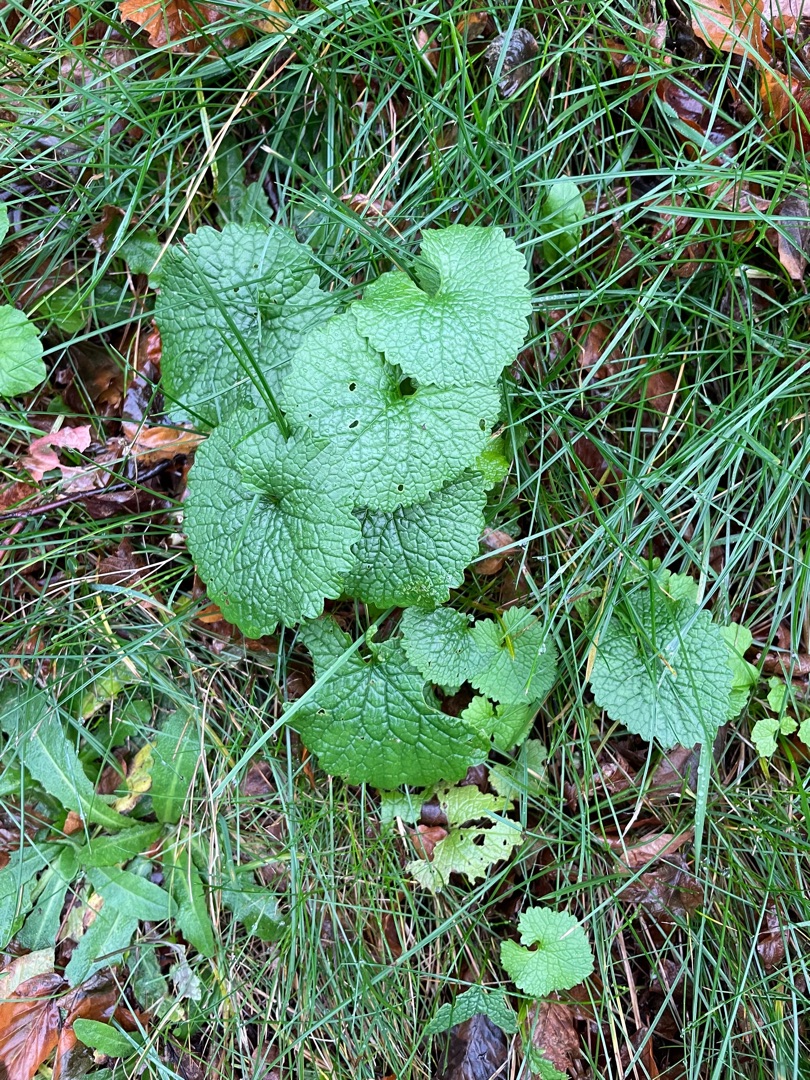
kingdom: Plantae
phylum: Tracheophyta
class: Magnoliopsida
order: Brassicales
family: Brassicaceae
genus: Alliaria
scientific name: Alliaria petiolata
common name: Løgkarse
